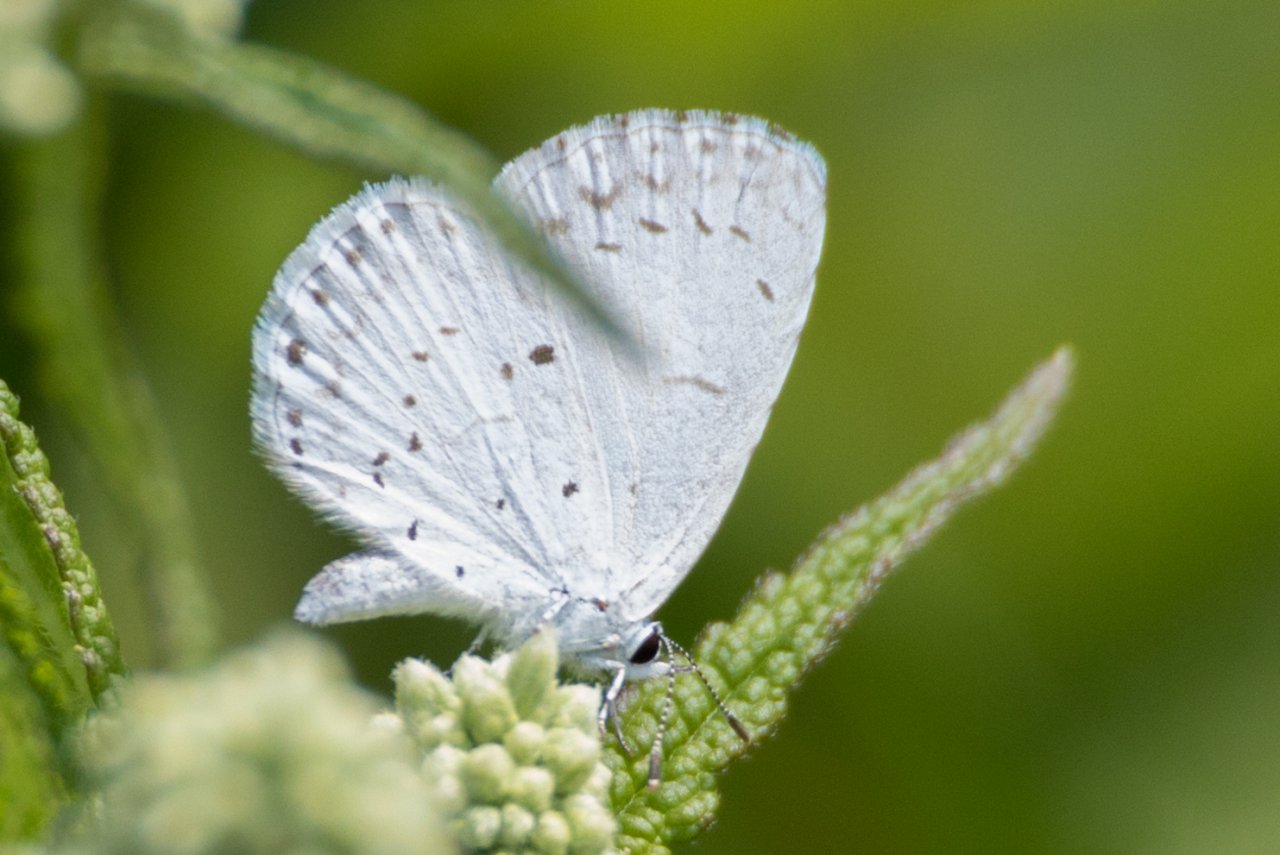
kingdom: Animalia
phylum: Arthropoda
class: Insecta
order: Lepidoptera
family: Lycaenidae
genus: Cyaniris
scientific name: Cyaniris neglecta
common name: Summer Azure
